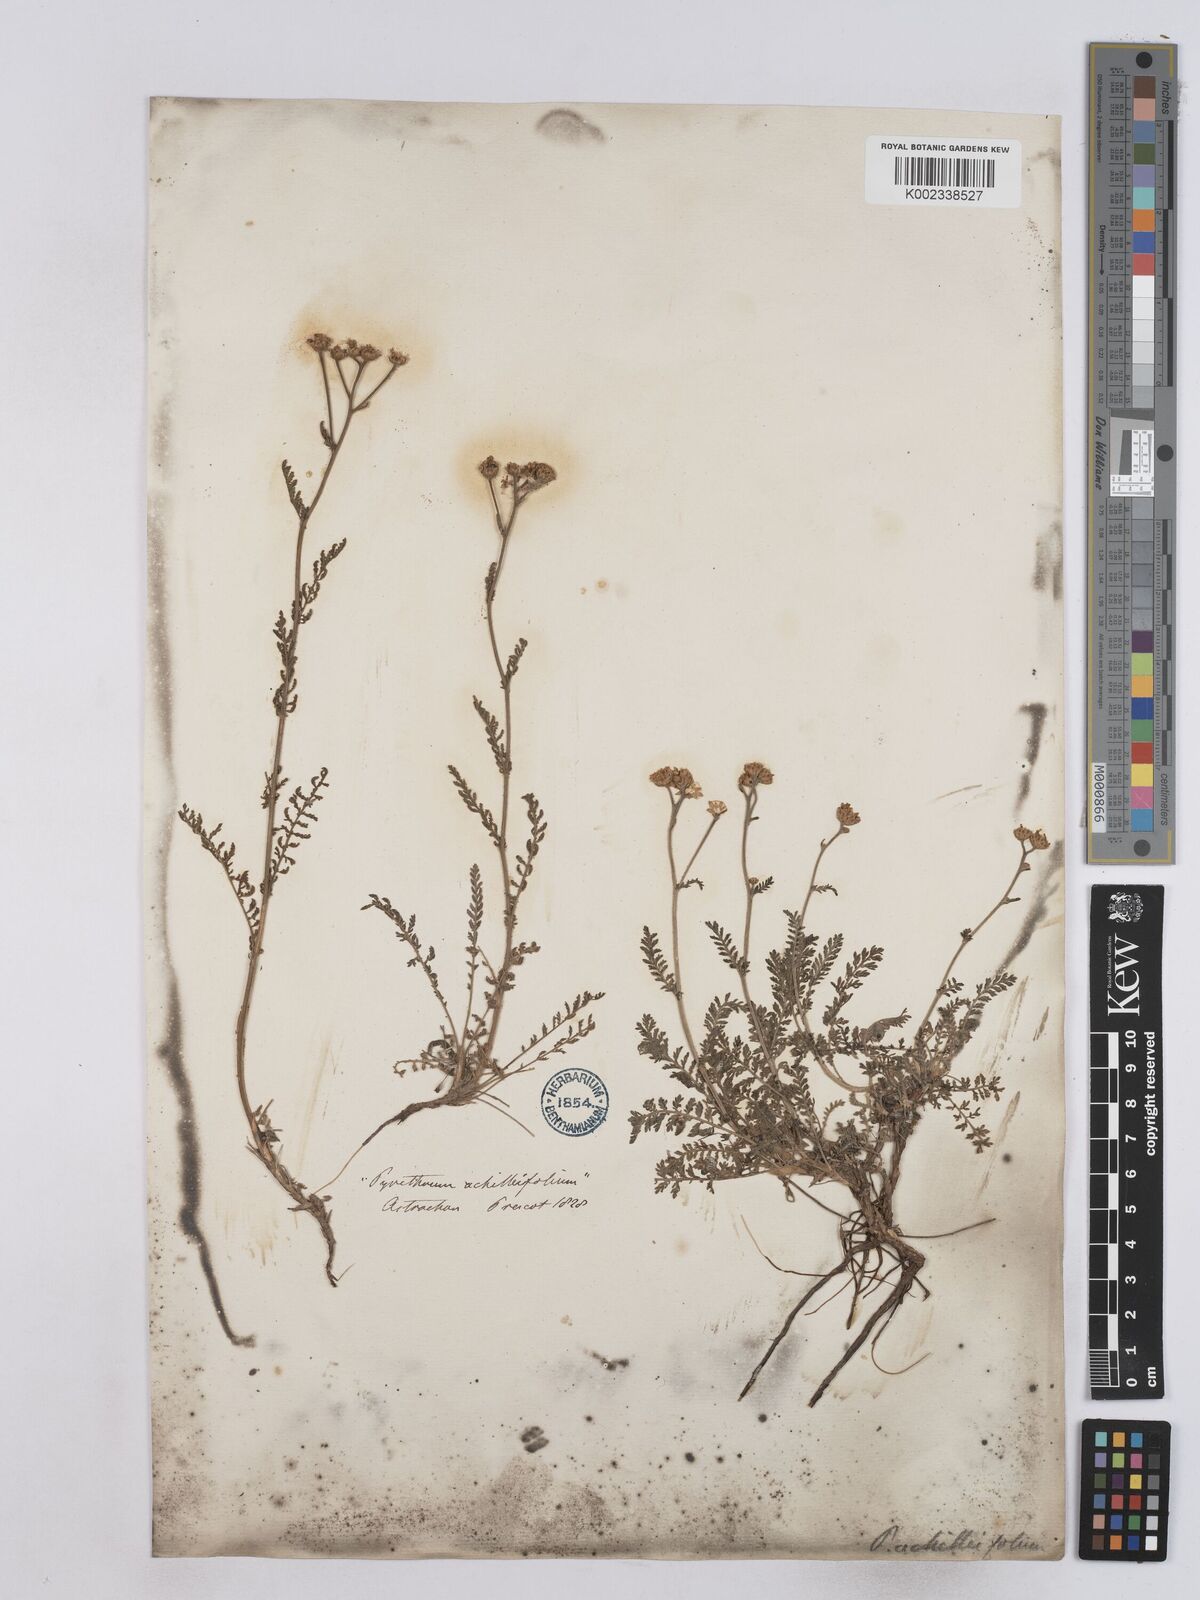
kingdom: Plantae
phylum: Tracheophyta
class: Magnoliopsida
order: Asterales
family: Asteraceae
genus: Tanacetum
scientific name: Tanacetum achilleifolium
